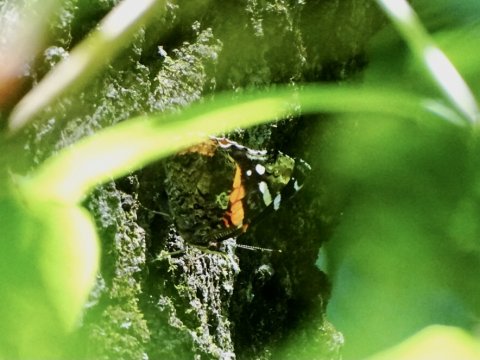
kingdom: Animalia
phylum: Arthropoda
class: Insecta
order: Lepidoptera
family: Nymphalidae
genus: Vanessa
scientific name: Vanessa atalanta
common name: Red Admiral
